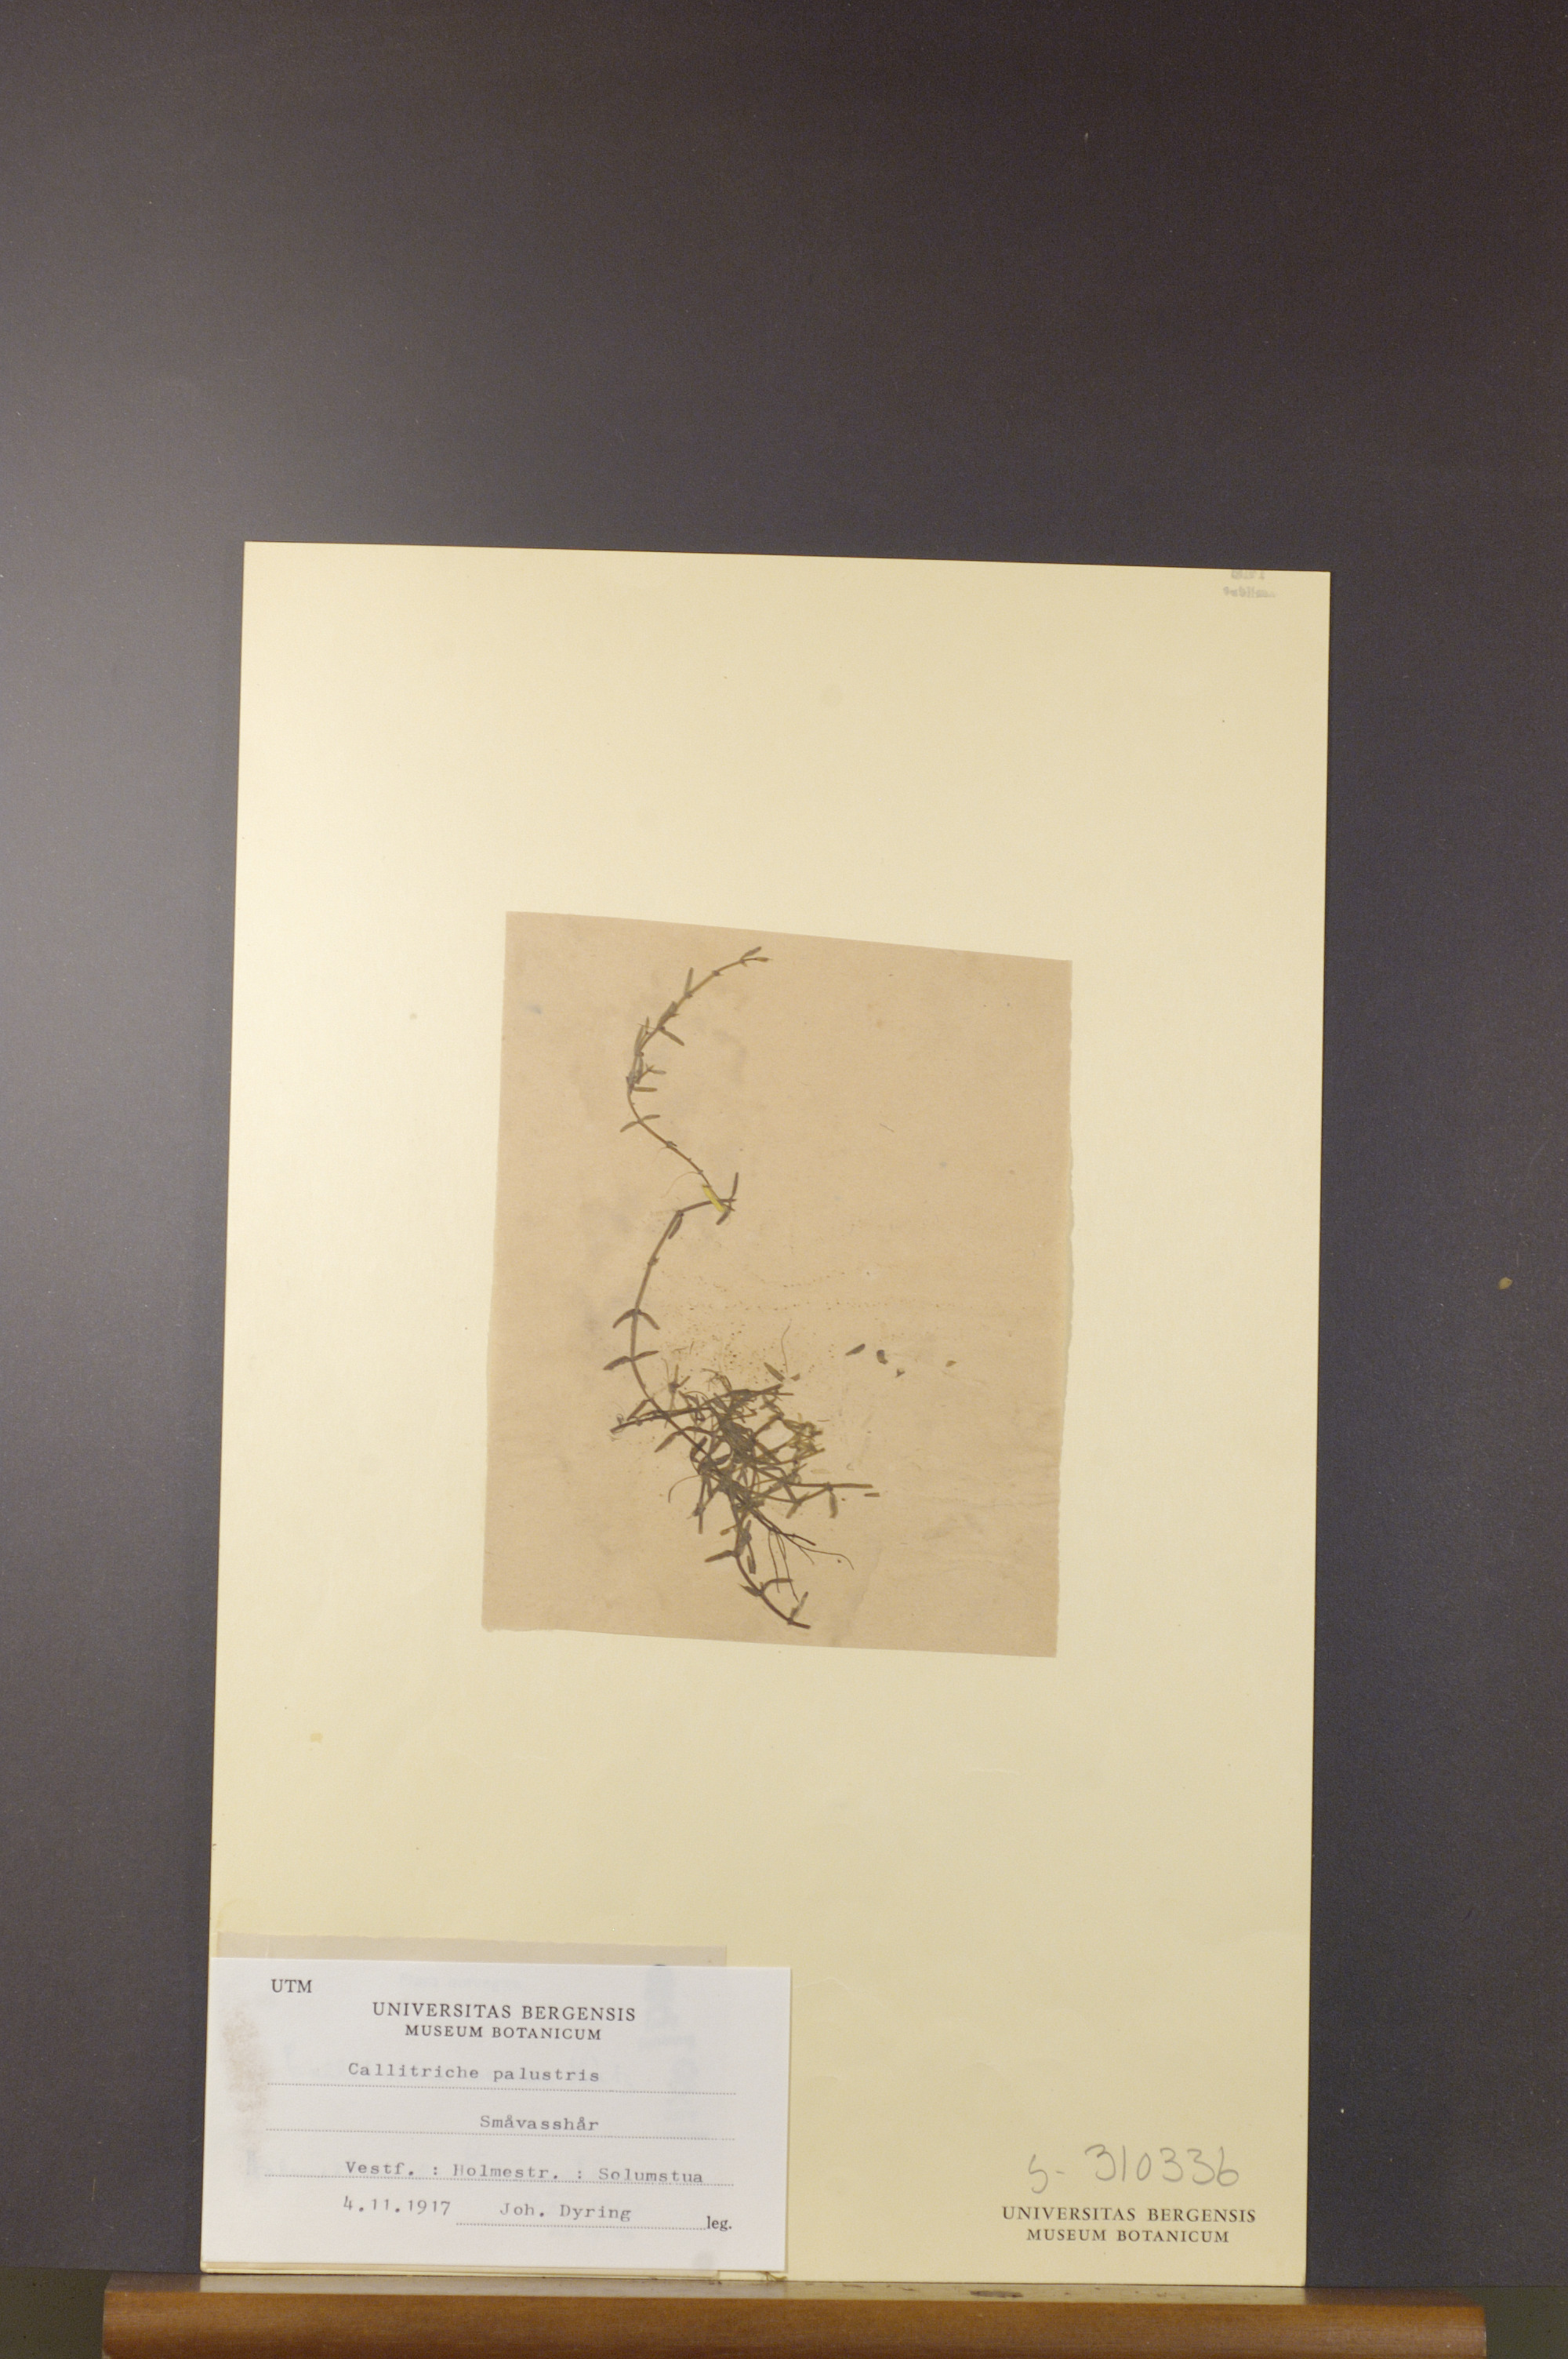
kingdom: Plantae
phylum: Tracheophyta
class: Magnoliopsida
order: Lamiales
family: Plantaginaceae
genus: Callitriche
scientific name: Callitriche palustris
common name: Spring water-starwort
